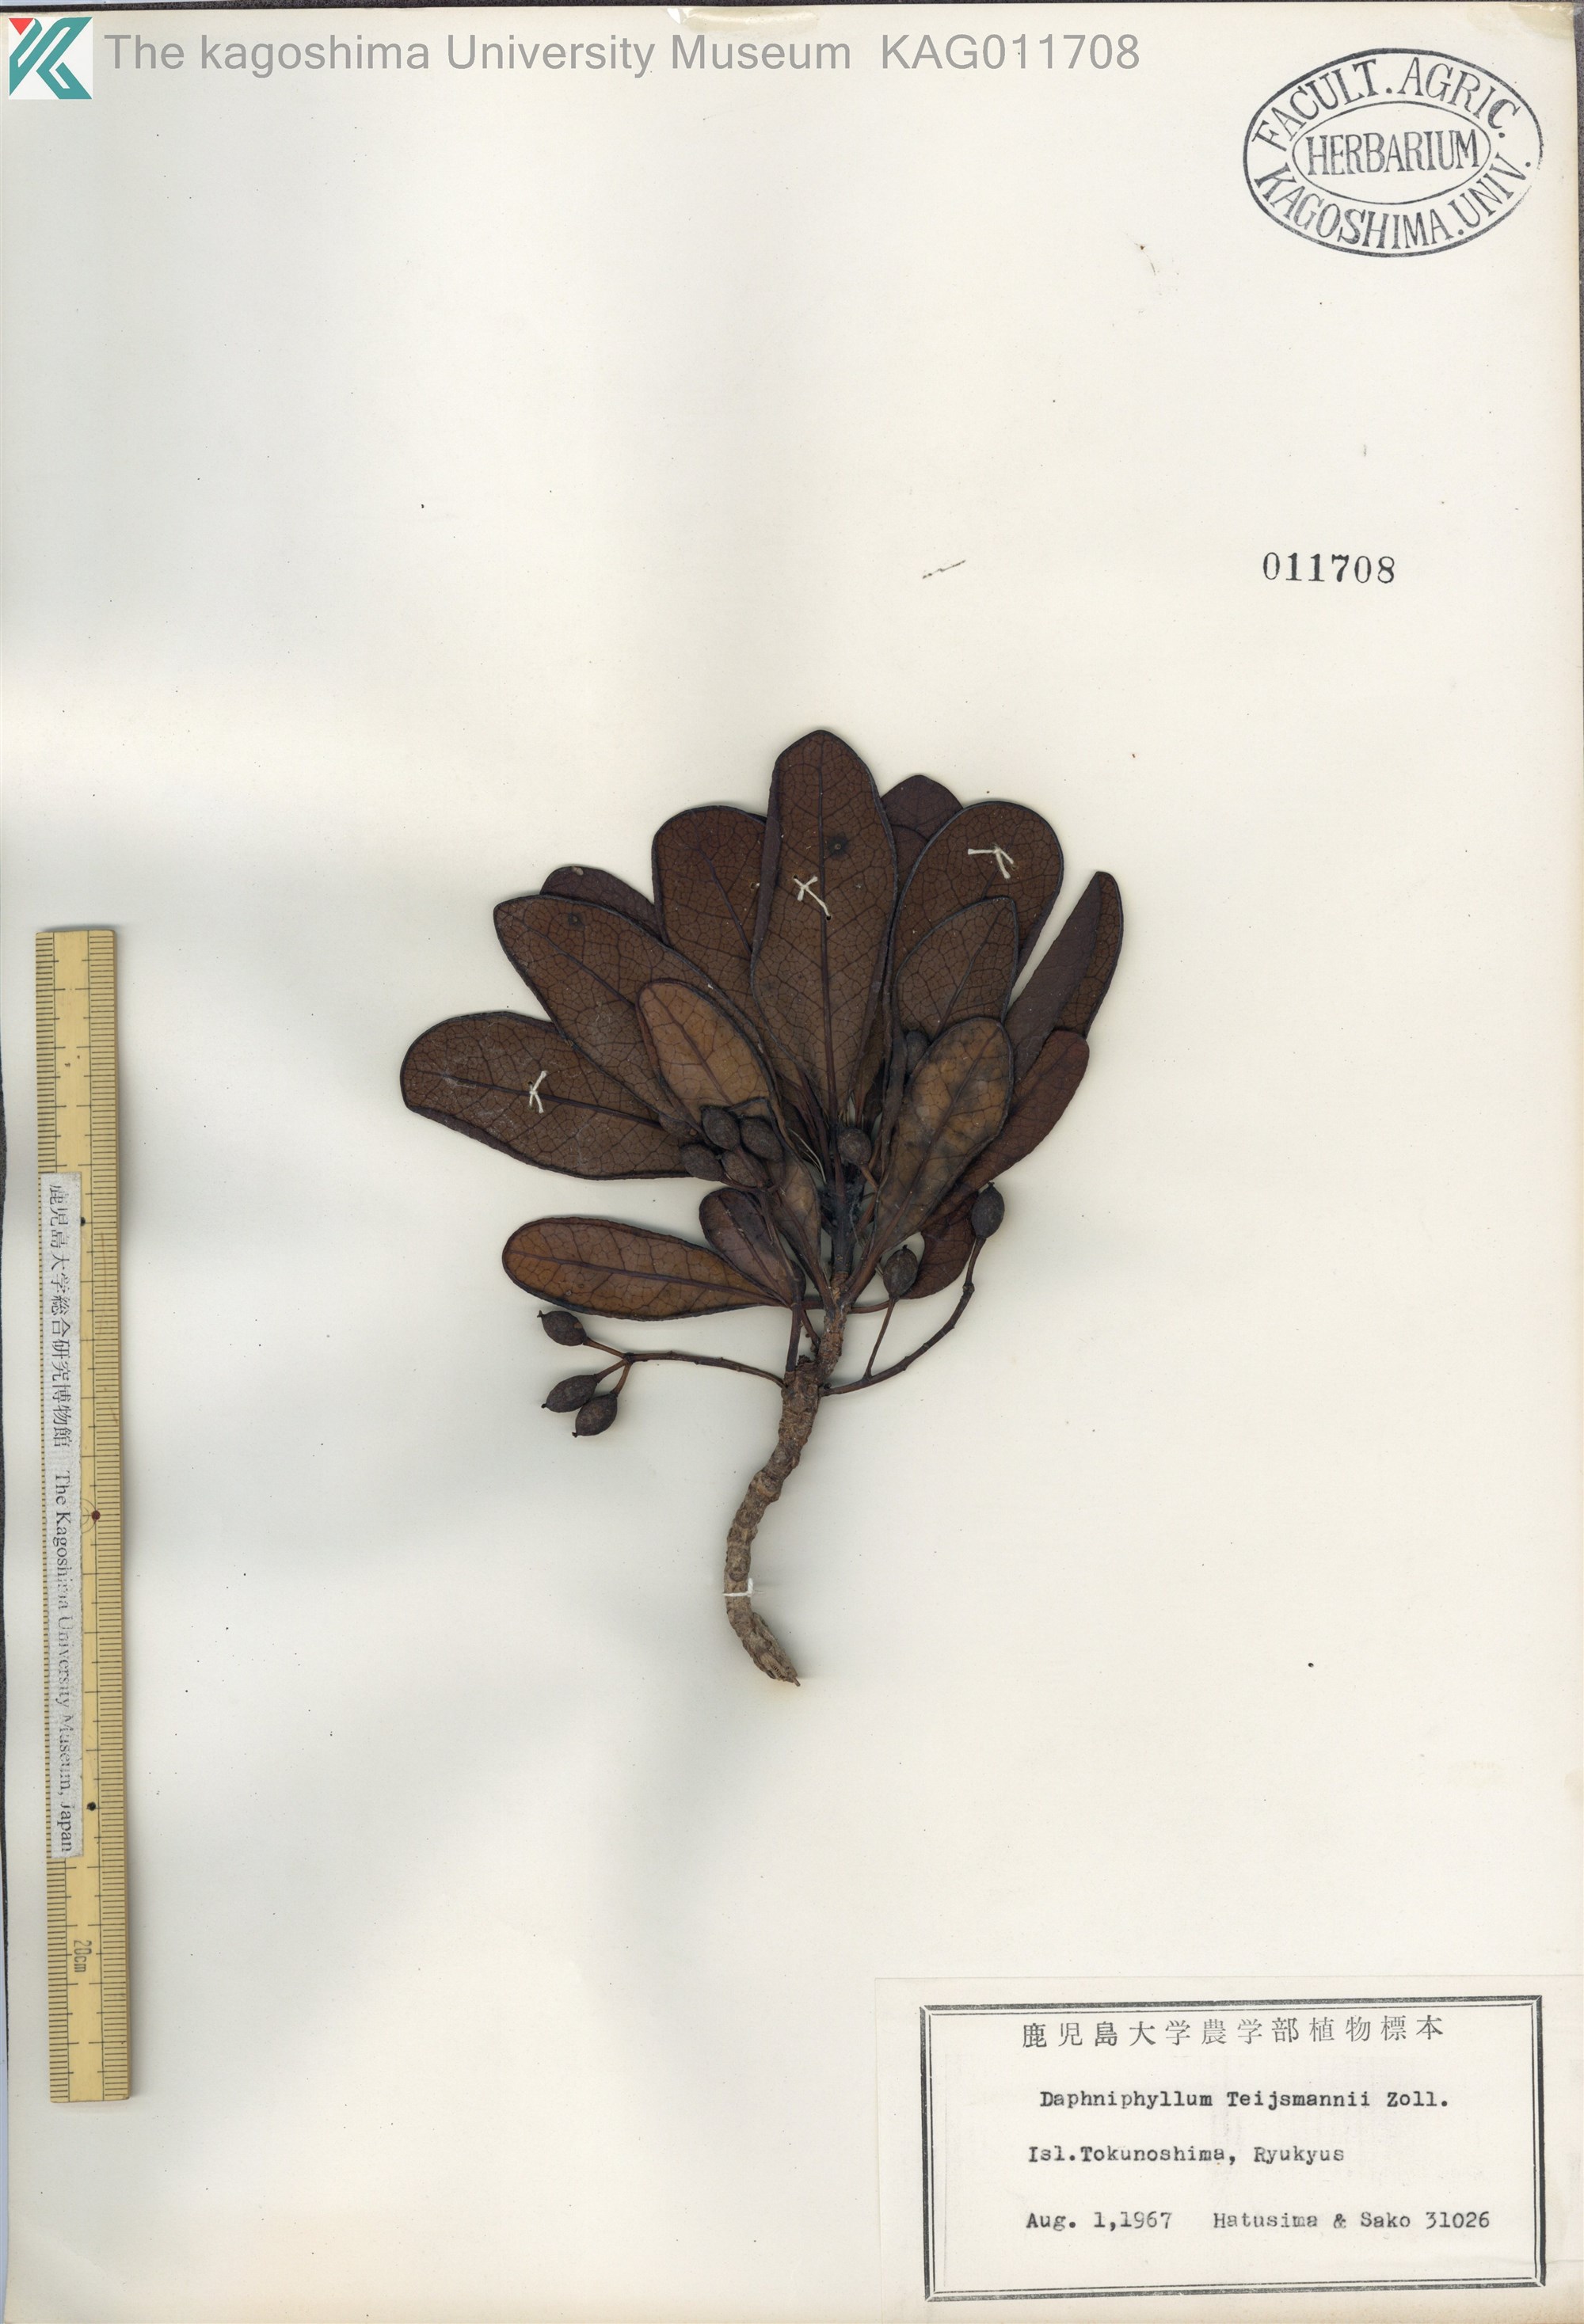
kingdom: Plantae
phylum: Tracheophyta
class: Magnoliopsida
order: Saxifragales
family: Daphniphyllaceae
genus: Daphniphyllum
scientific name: Daphniphyllum teijsmannii
